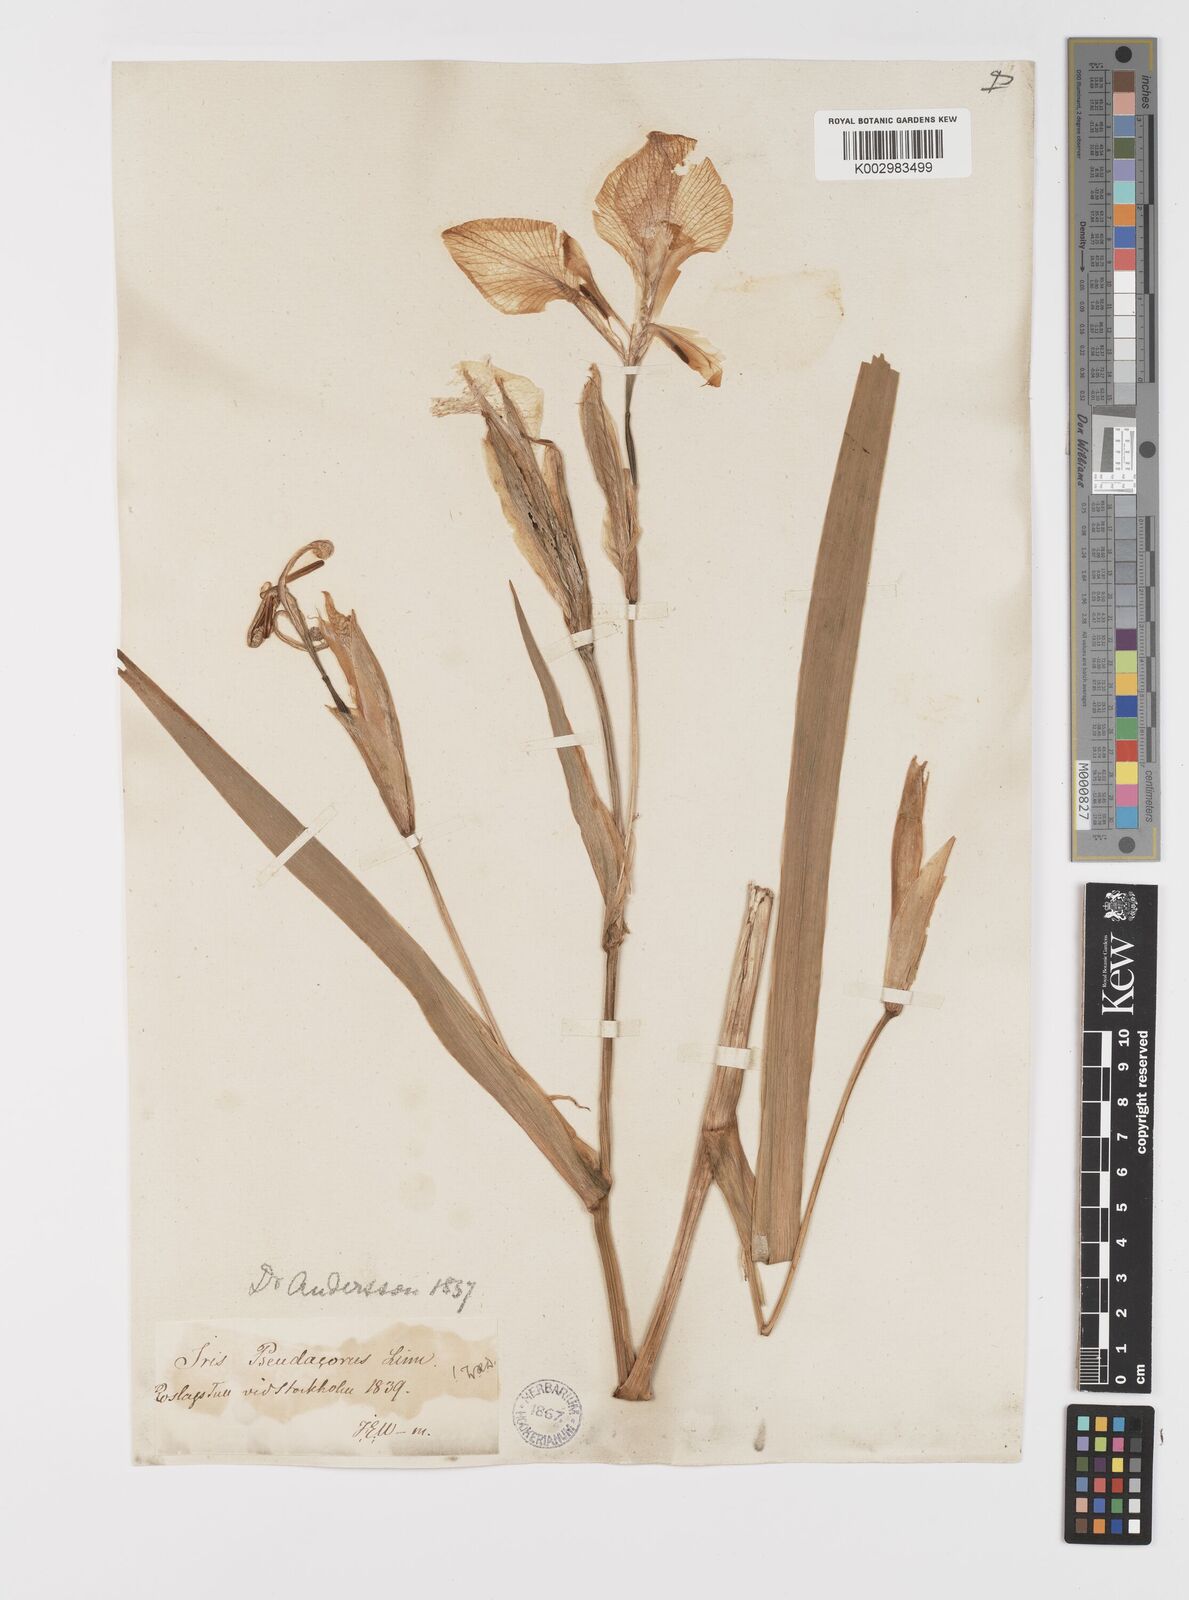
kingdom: Plantae
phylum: Tracheophyta
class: Liliopsida
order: Asparagales
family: Iridaceae
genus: Iris
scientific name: Iris pseudacorus
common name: Yellow flag
